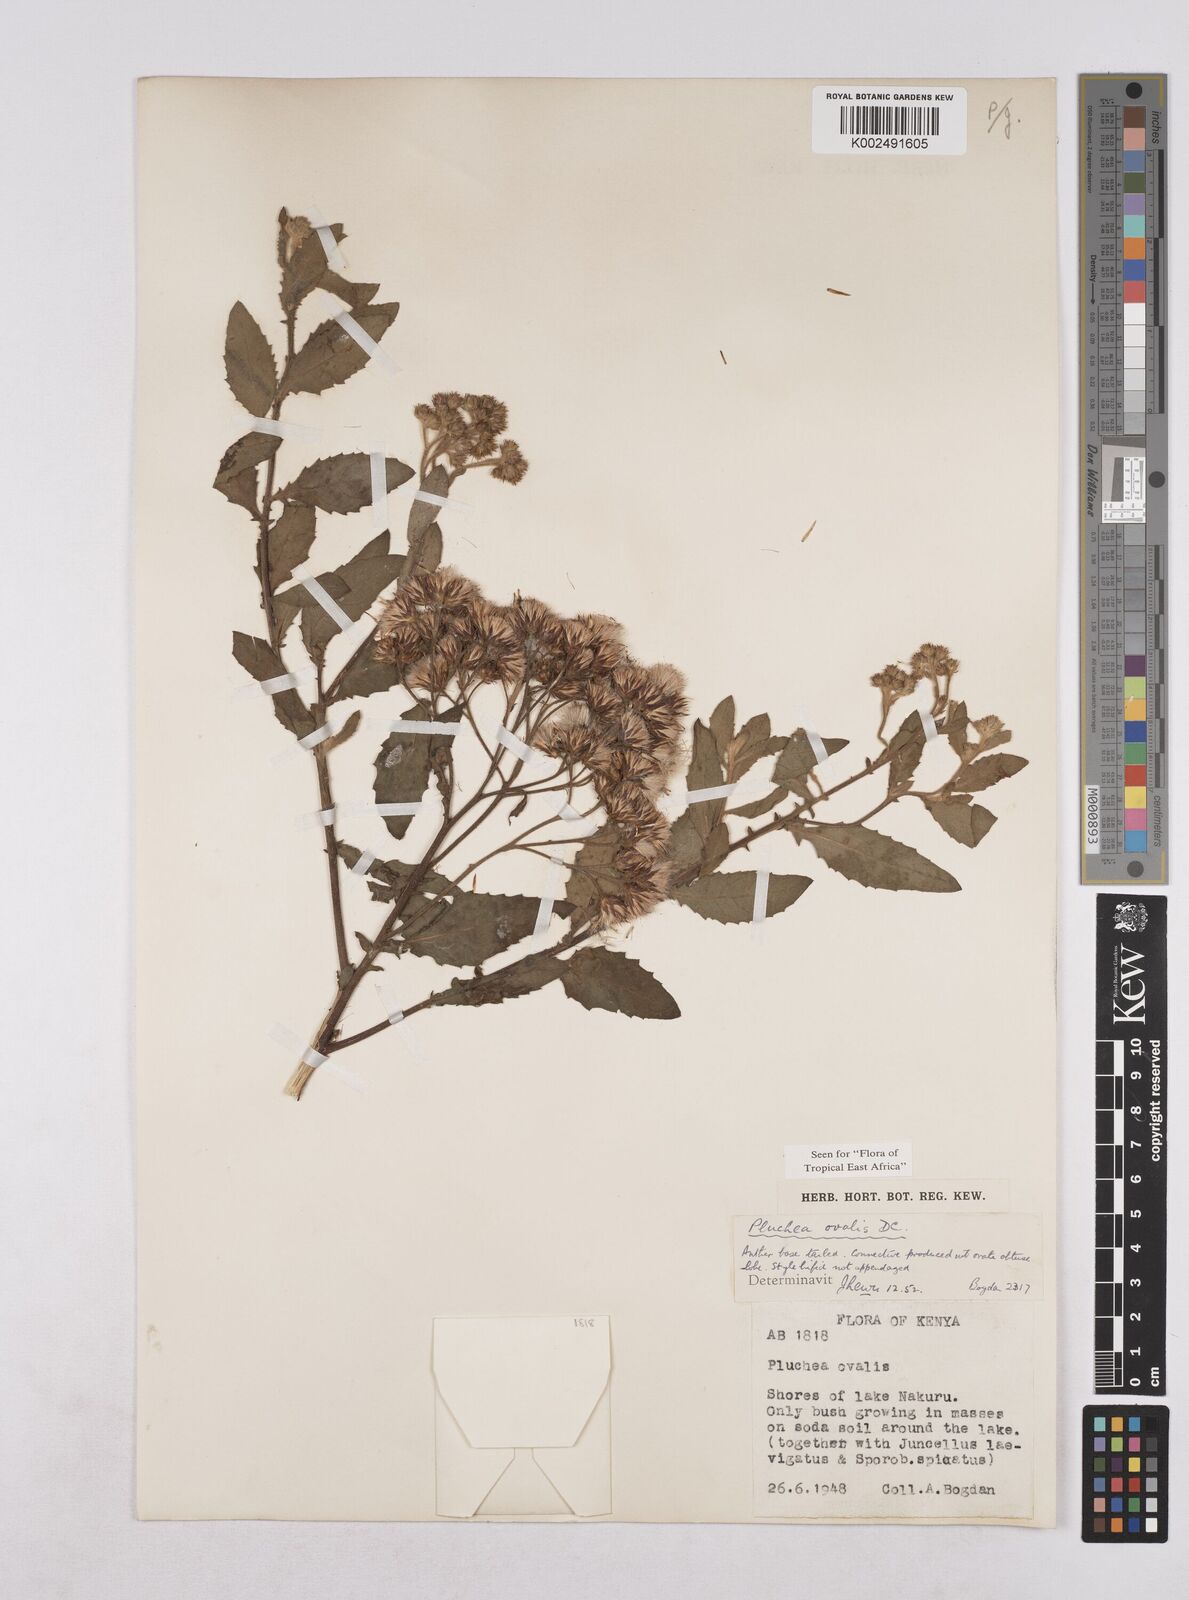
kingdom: Plantae
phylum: Tracheophyta
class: Magnoliopsida
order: Asterales
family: Asteraceae
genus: Pluchea
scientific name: Pluchea ovalis
